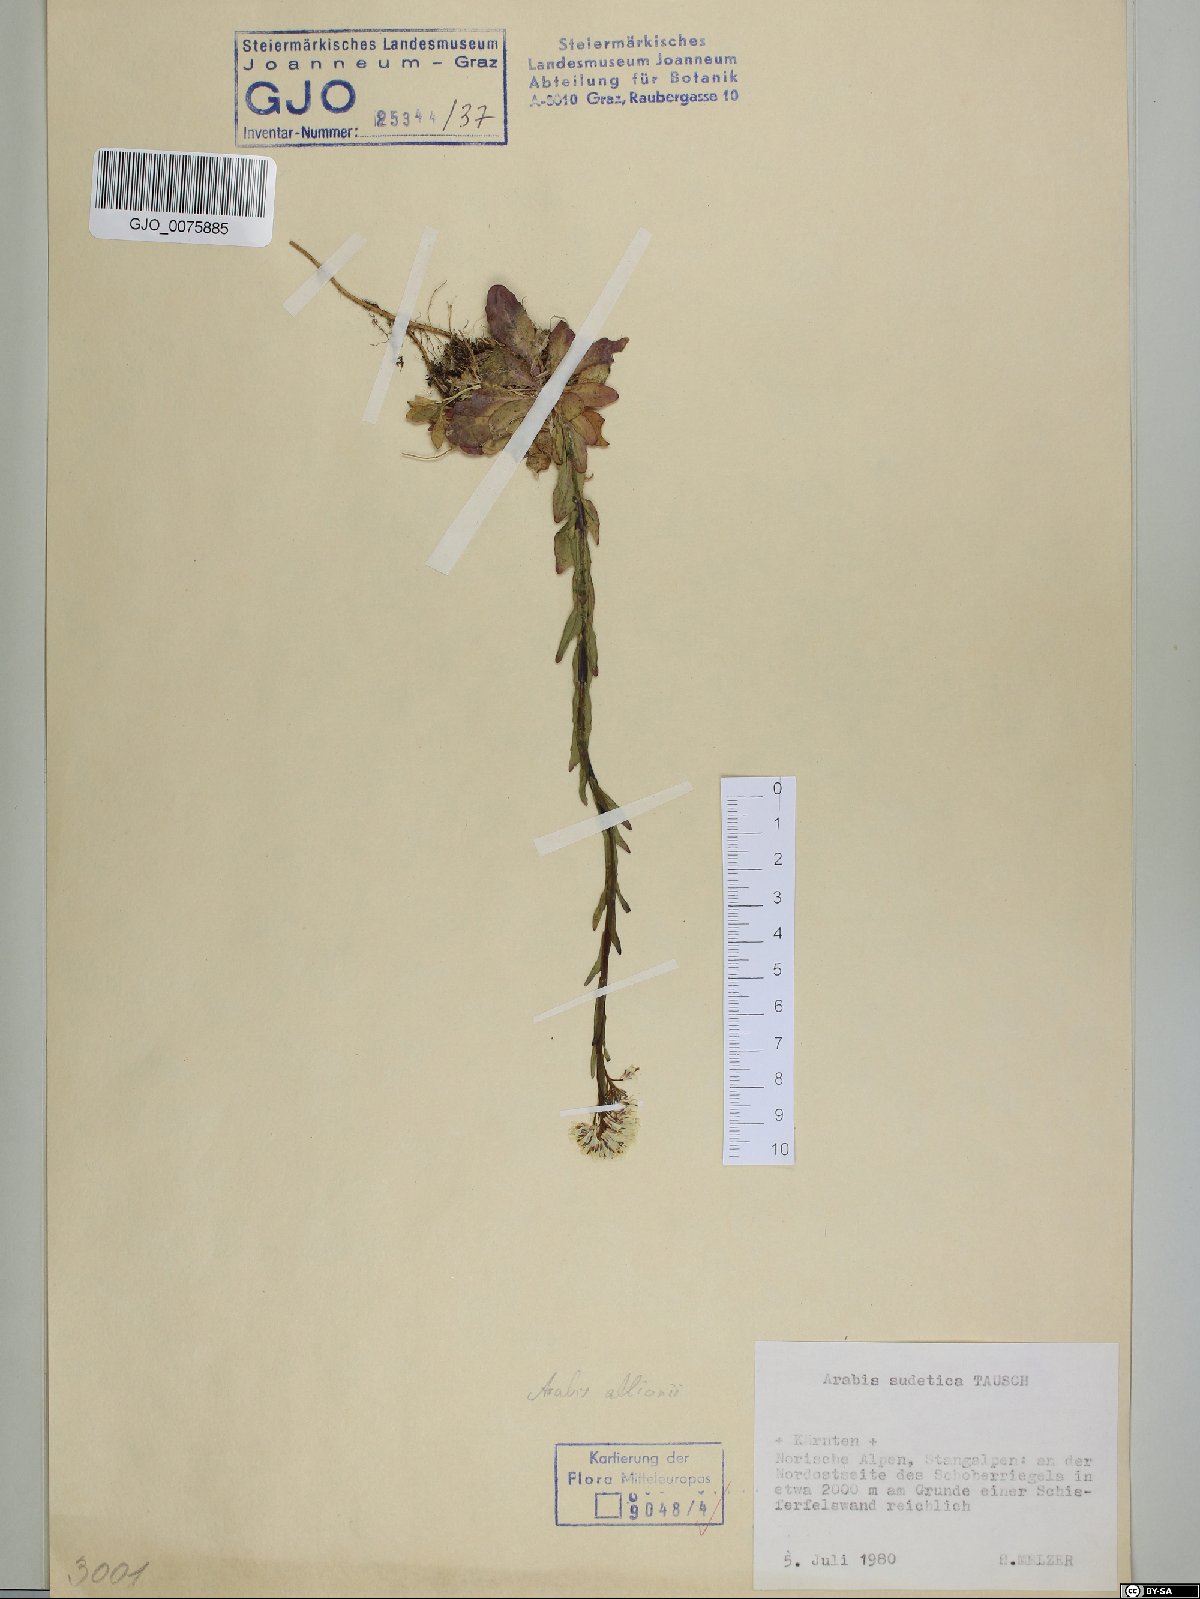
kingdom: Plantae
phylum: Tracheophyta
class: Magnoliopsida
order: Brassicales
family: Brassicaceae
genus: Arabis
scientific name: Arabis sudetica
